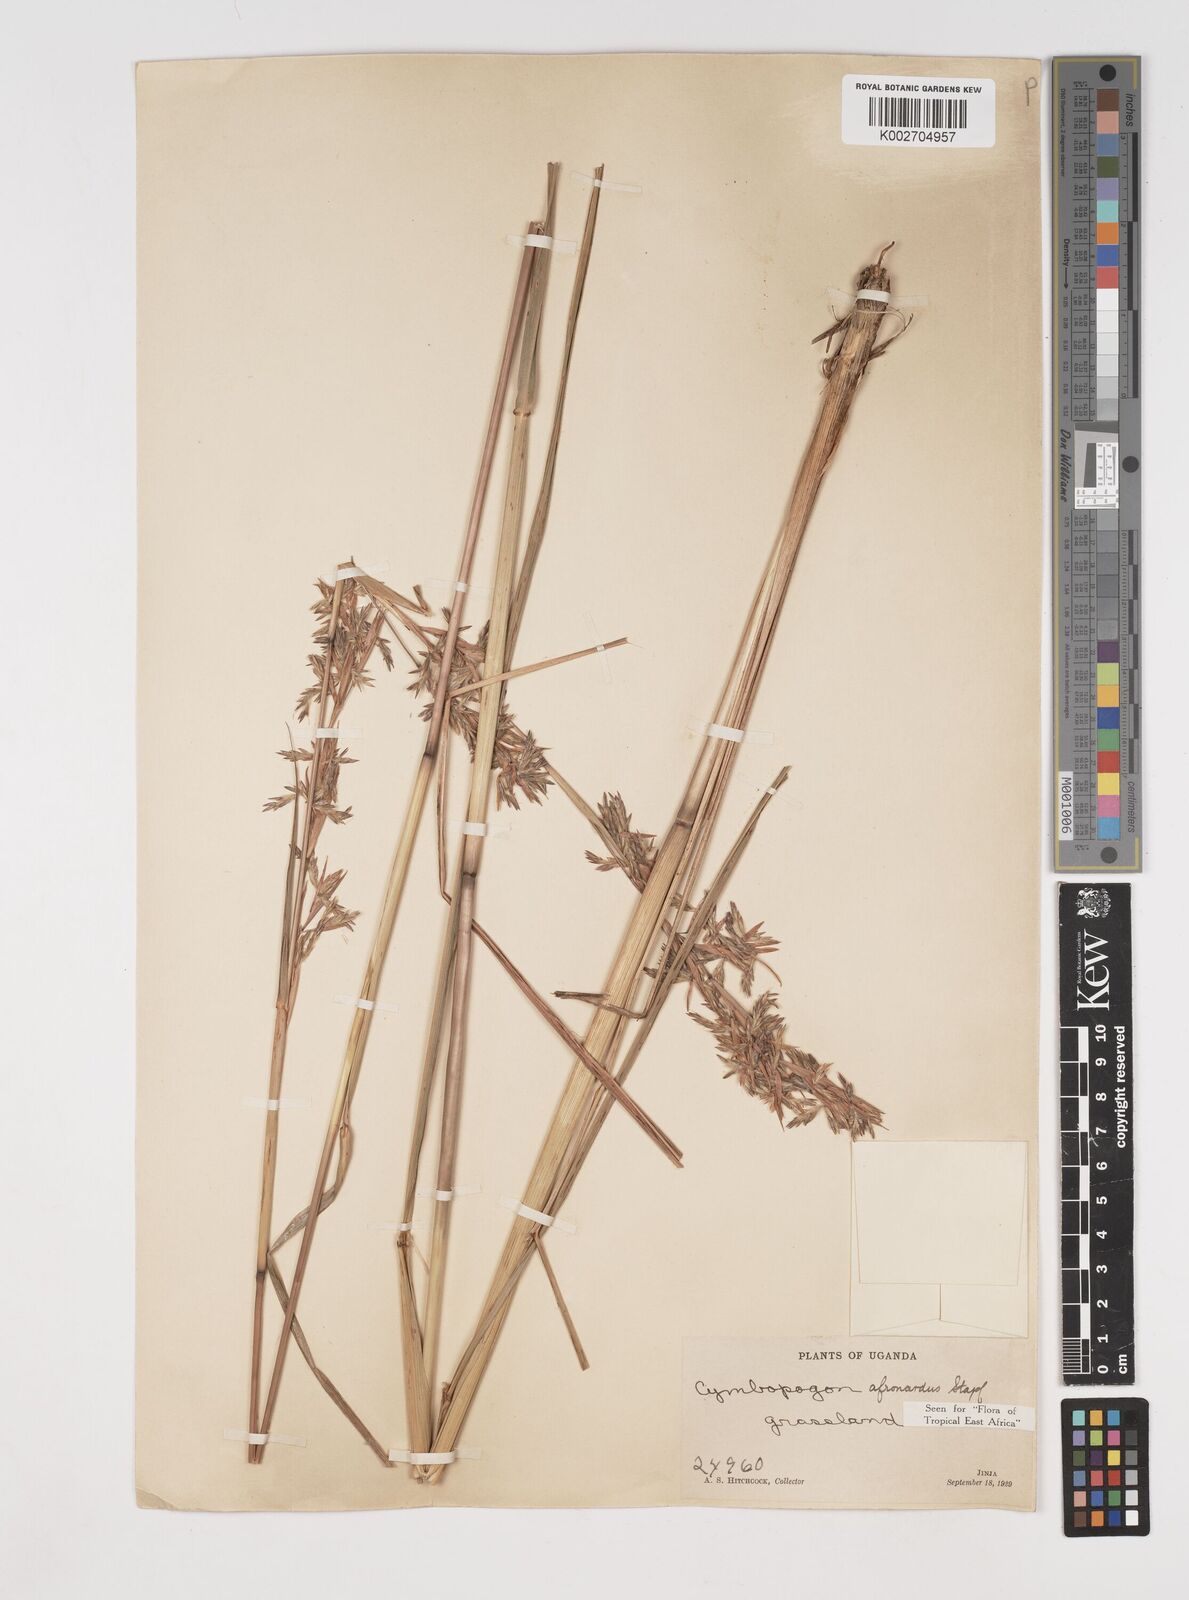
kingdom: Plantae
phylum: Tracheophyta
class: Liliopsida
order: Poales
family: Poaceae
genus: Cymbopogon
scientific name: Cymbopogon nardus
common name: Giant turpentine grass
